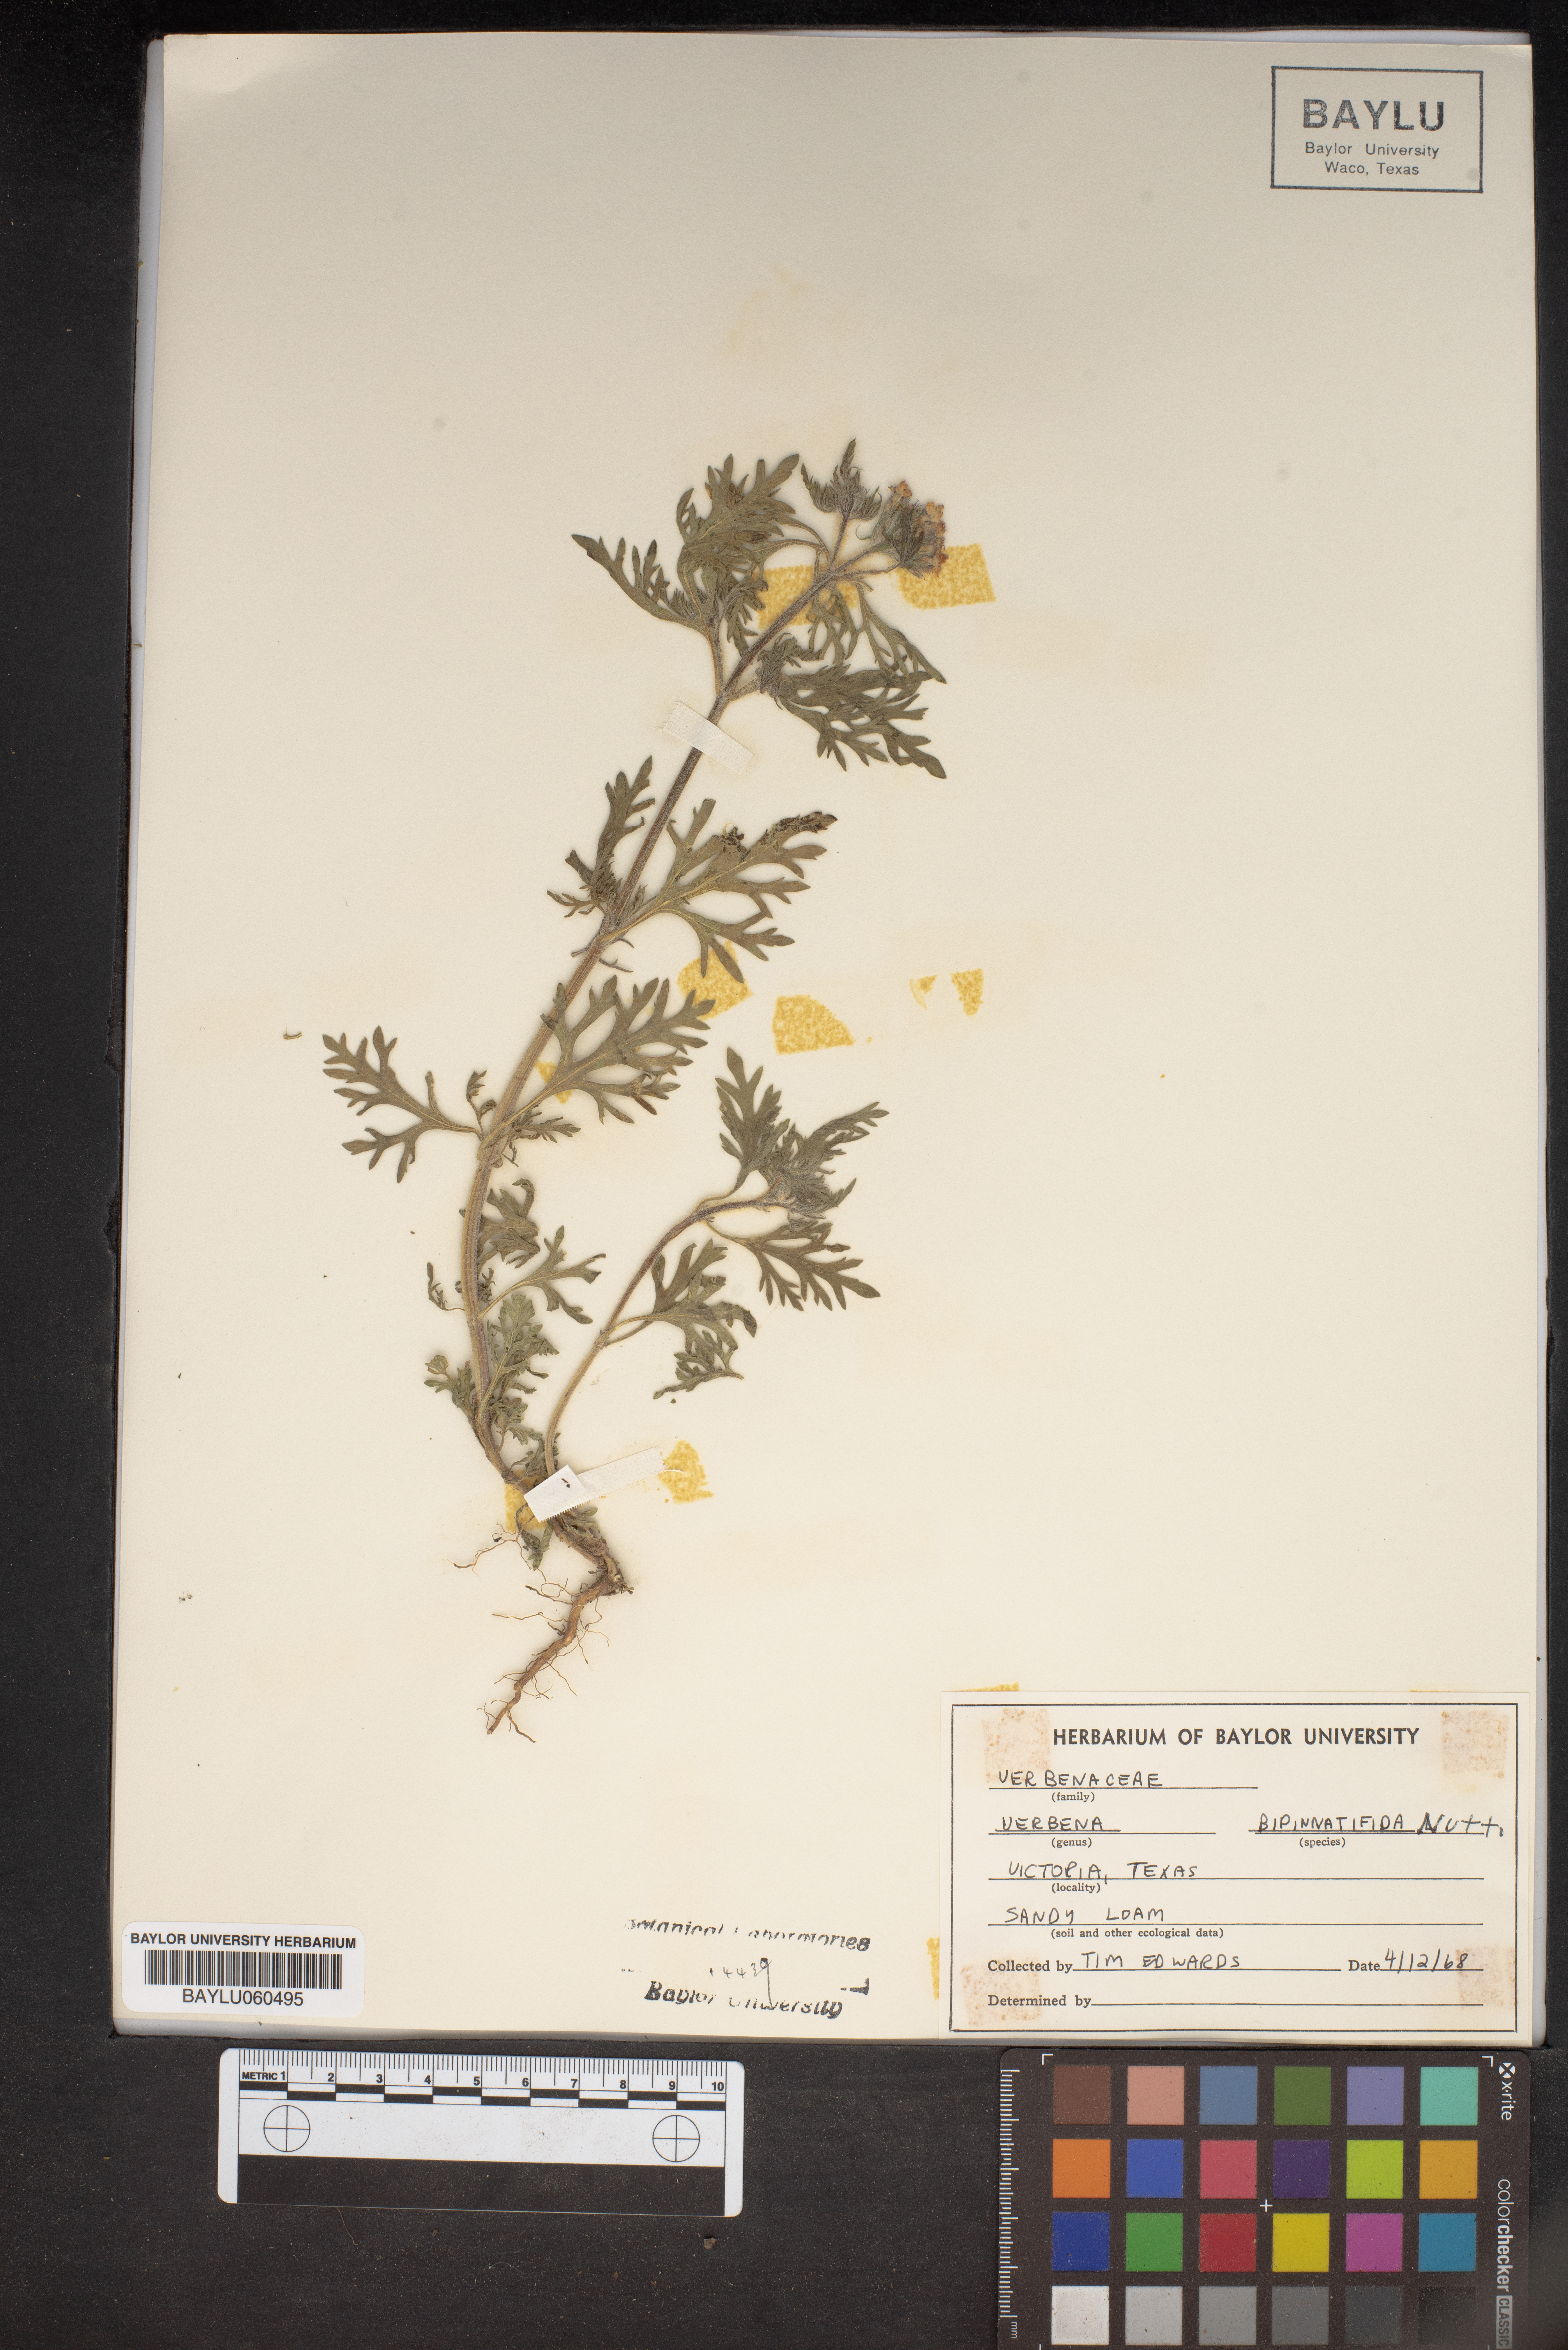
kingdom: Plantae
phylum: Tracheophyta
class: Magnoliopsida
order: Lamiales
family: Verbenaceae
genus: Verbena
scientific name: Verbena bipinnatifida
